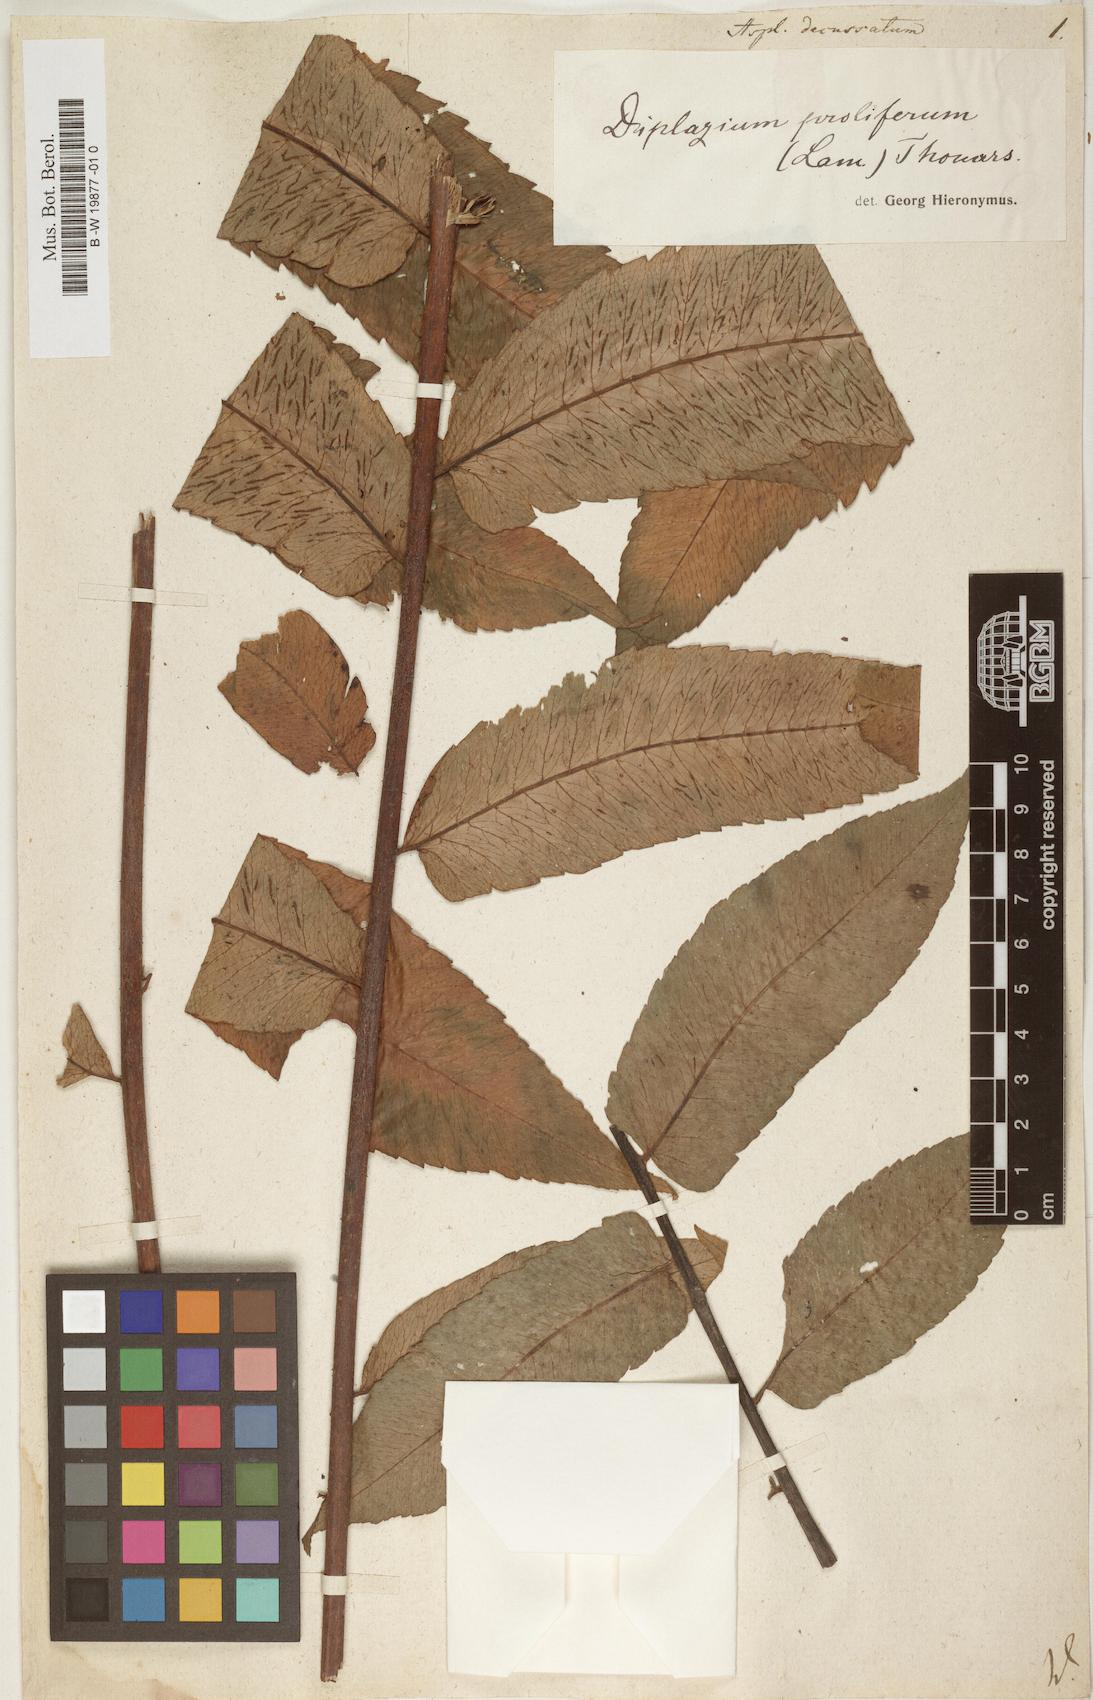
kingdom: Plantae
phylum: Tracheophyta
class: Polypodiopsida
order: Polypodiales
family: Athyriaceae
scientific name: Athyriaceae
